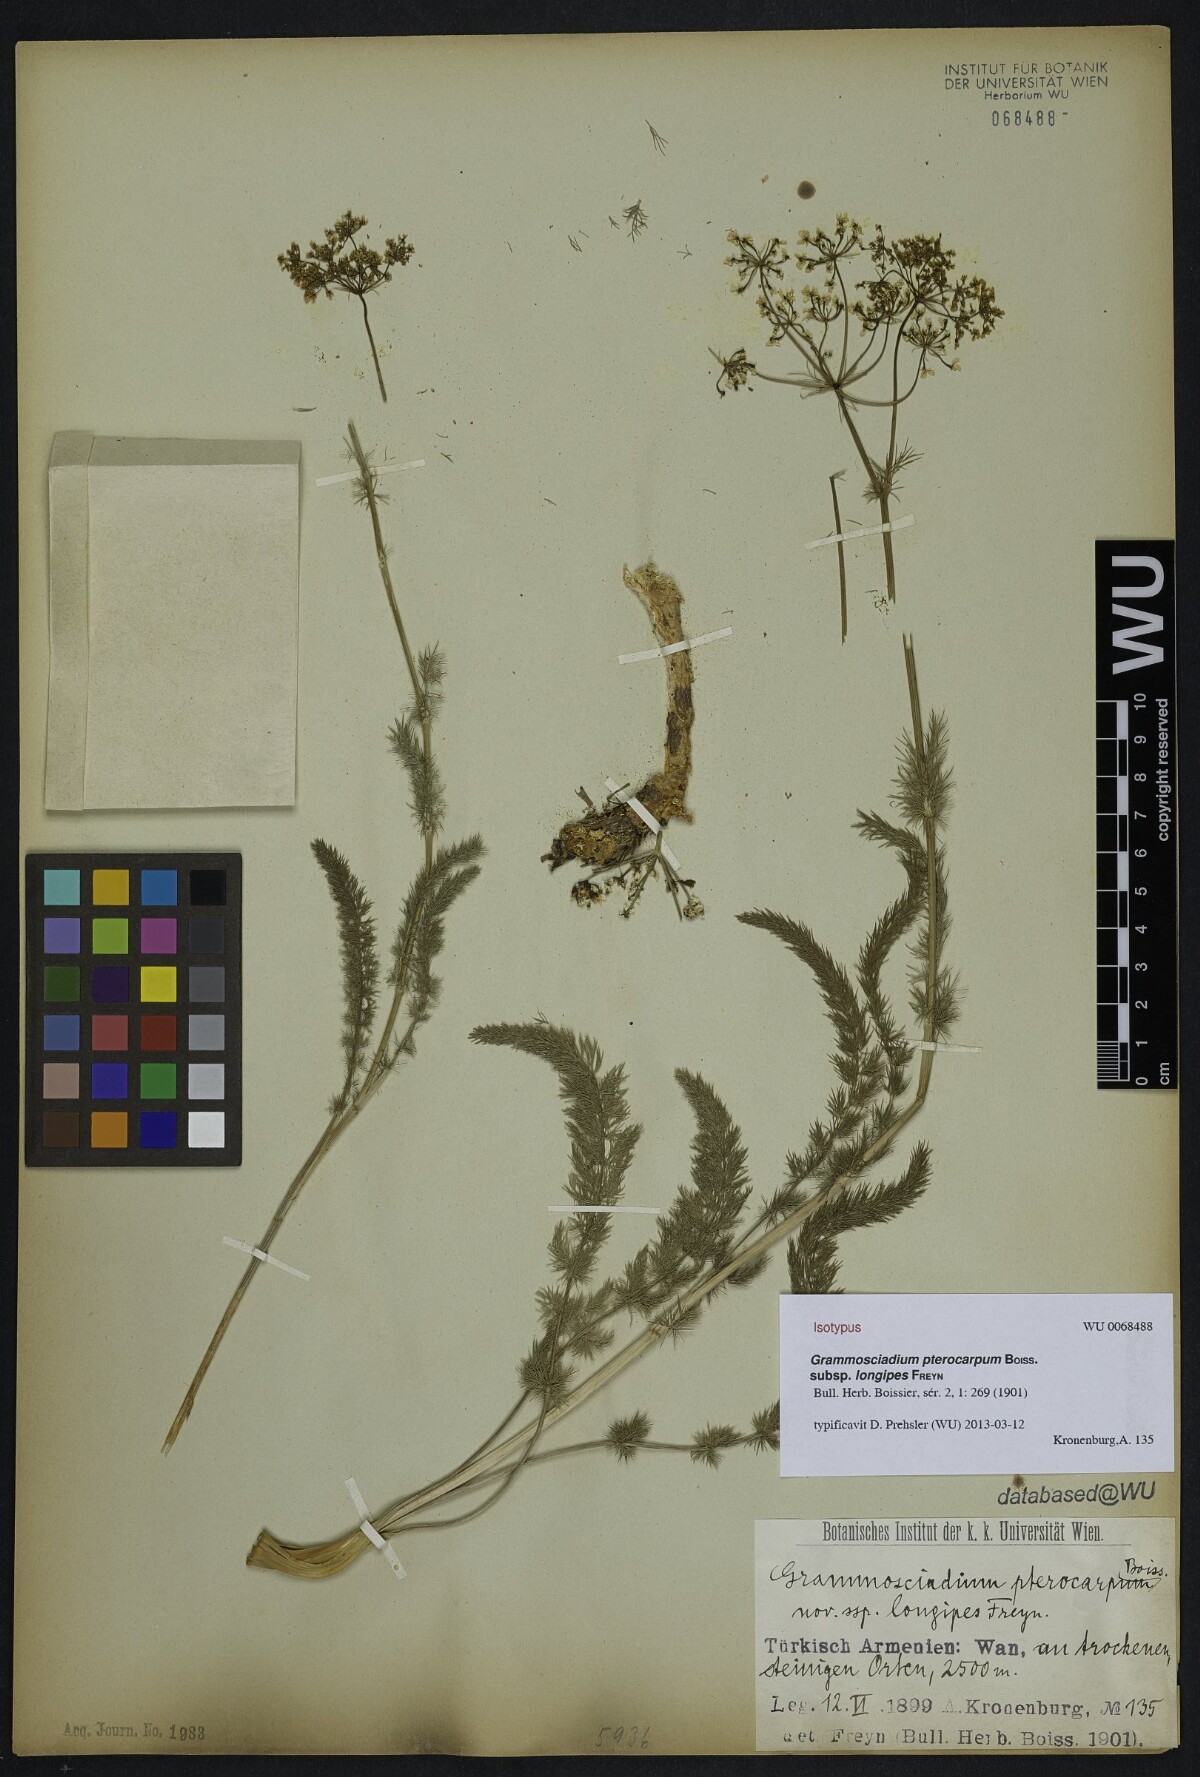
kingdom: Plantae
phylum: Tracheophyta
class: Magnoliopsida
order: Apiales
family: Apiaceae
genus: Caropodium
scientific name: Caropodium pterocarpum
